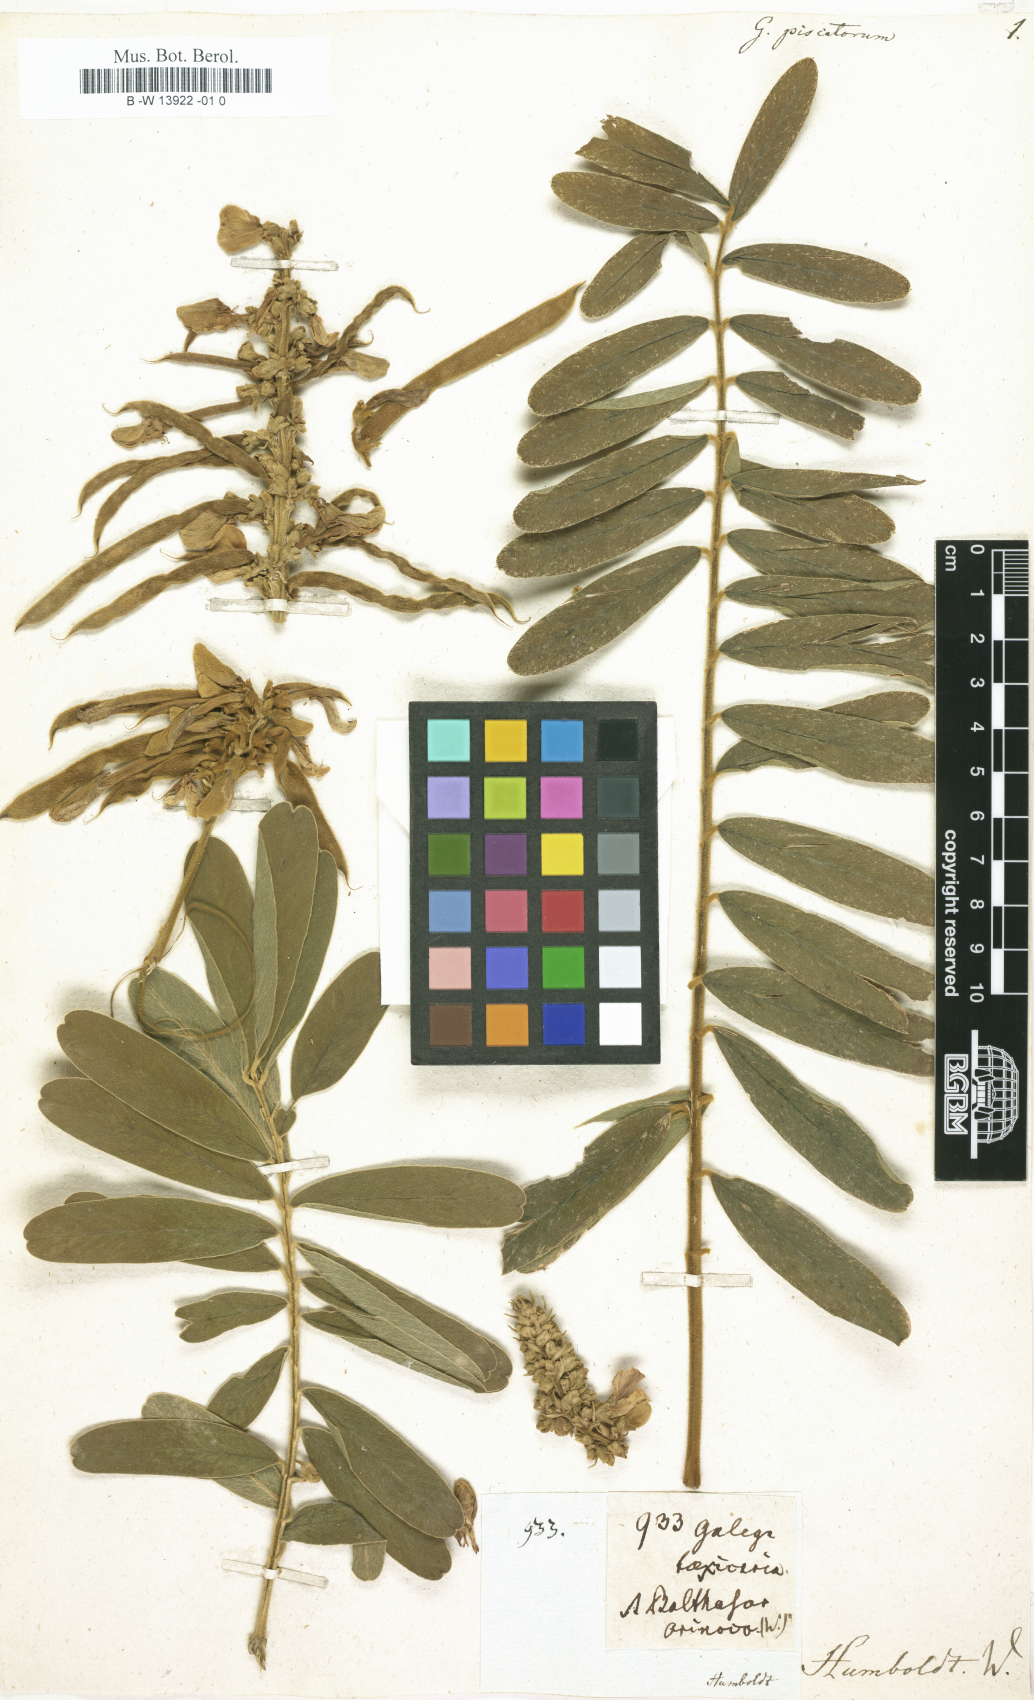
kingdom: Plantae
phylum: Tracheophyta
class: Magnoliopsida
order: Fabales
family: Fabaceae
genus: Tephrosia
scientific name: Tephrosia purpurea
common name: Fishpoison
